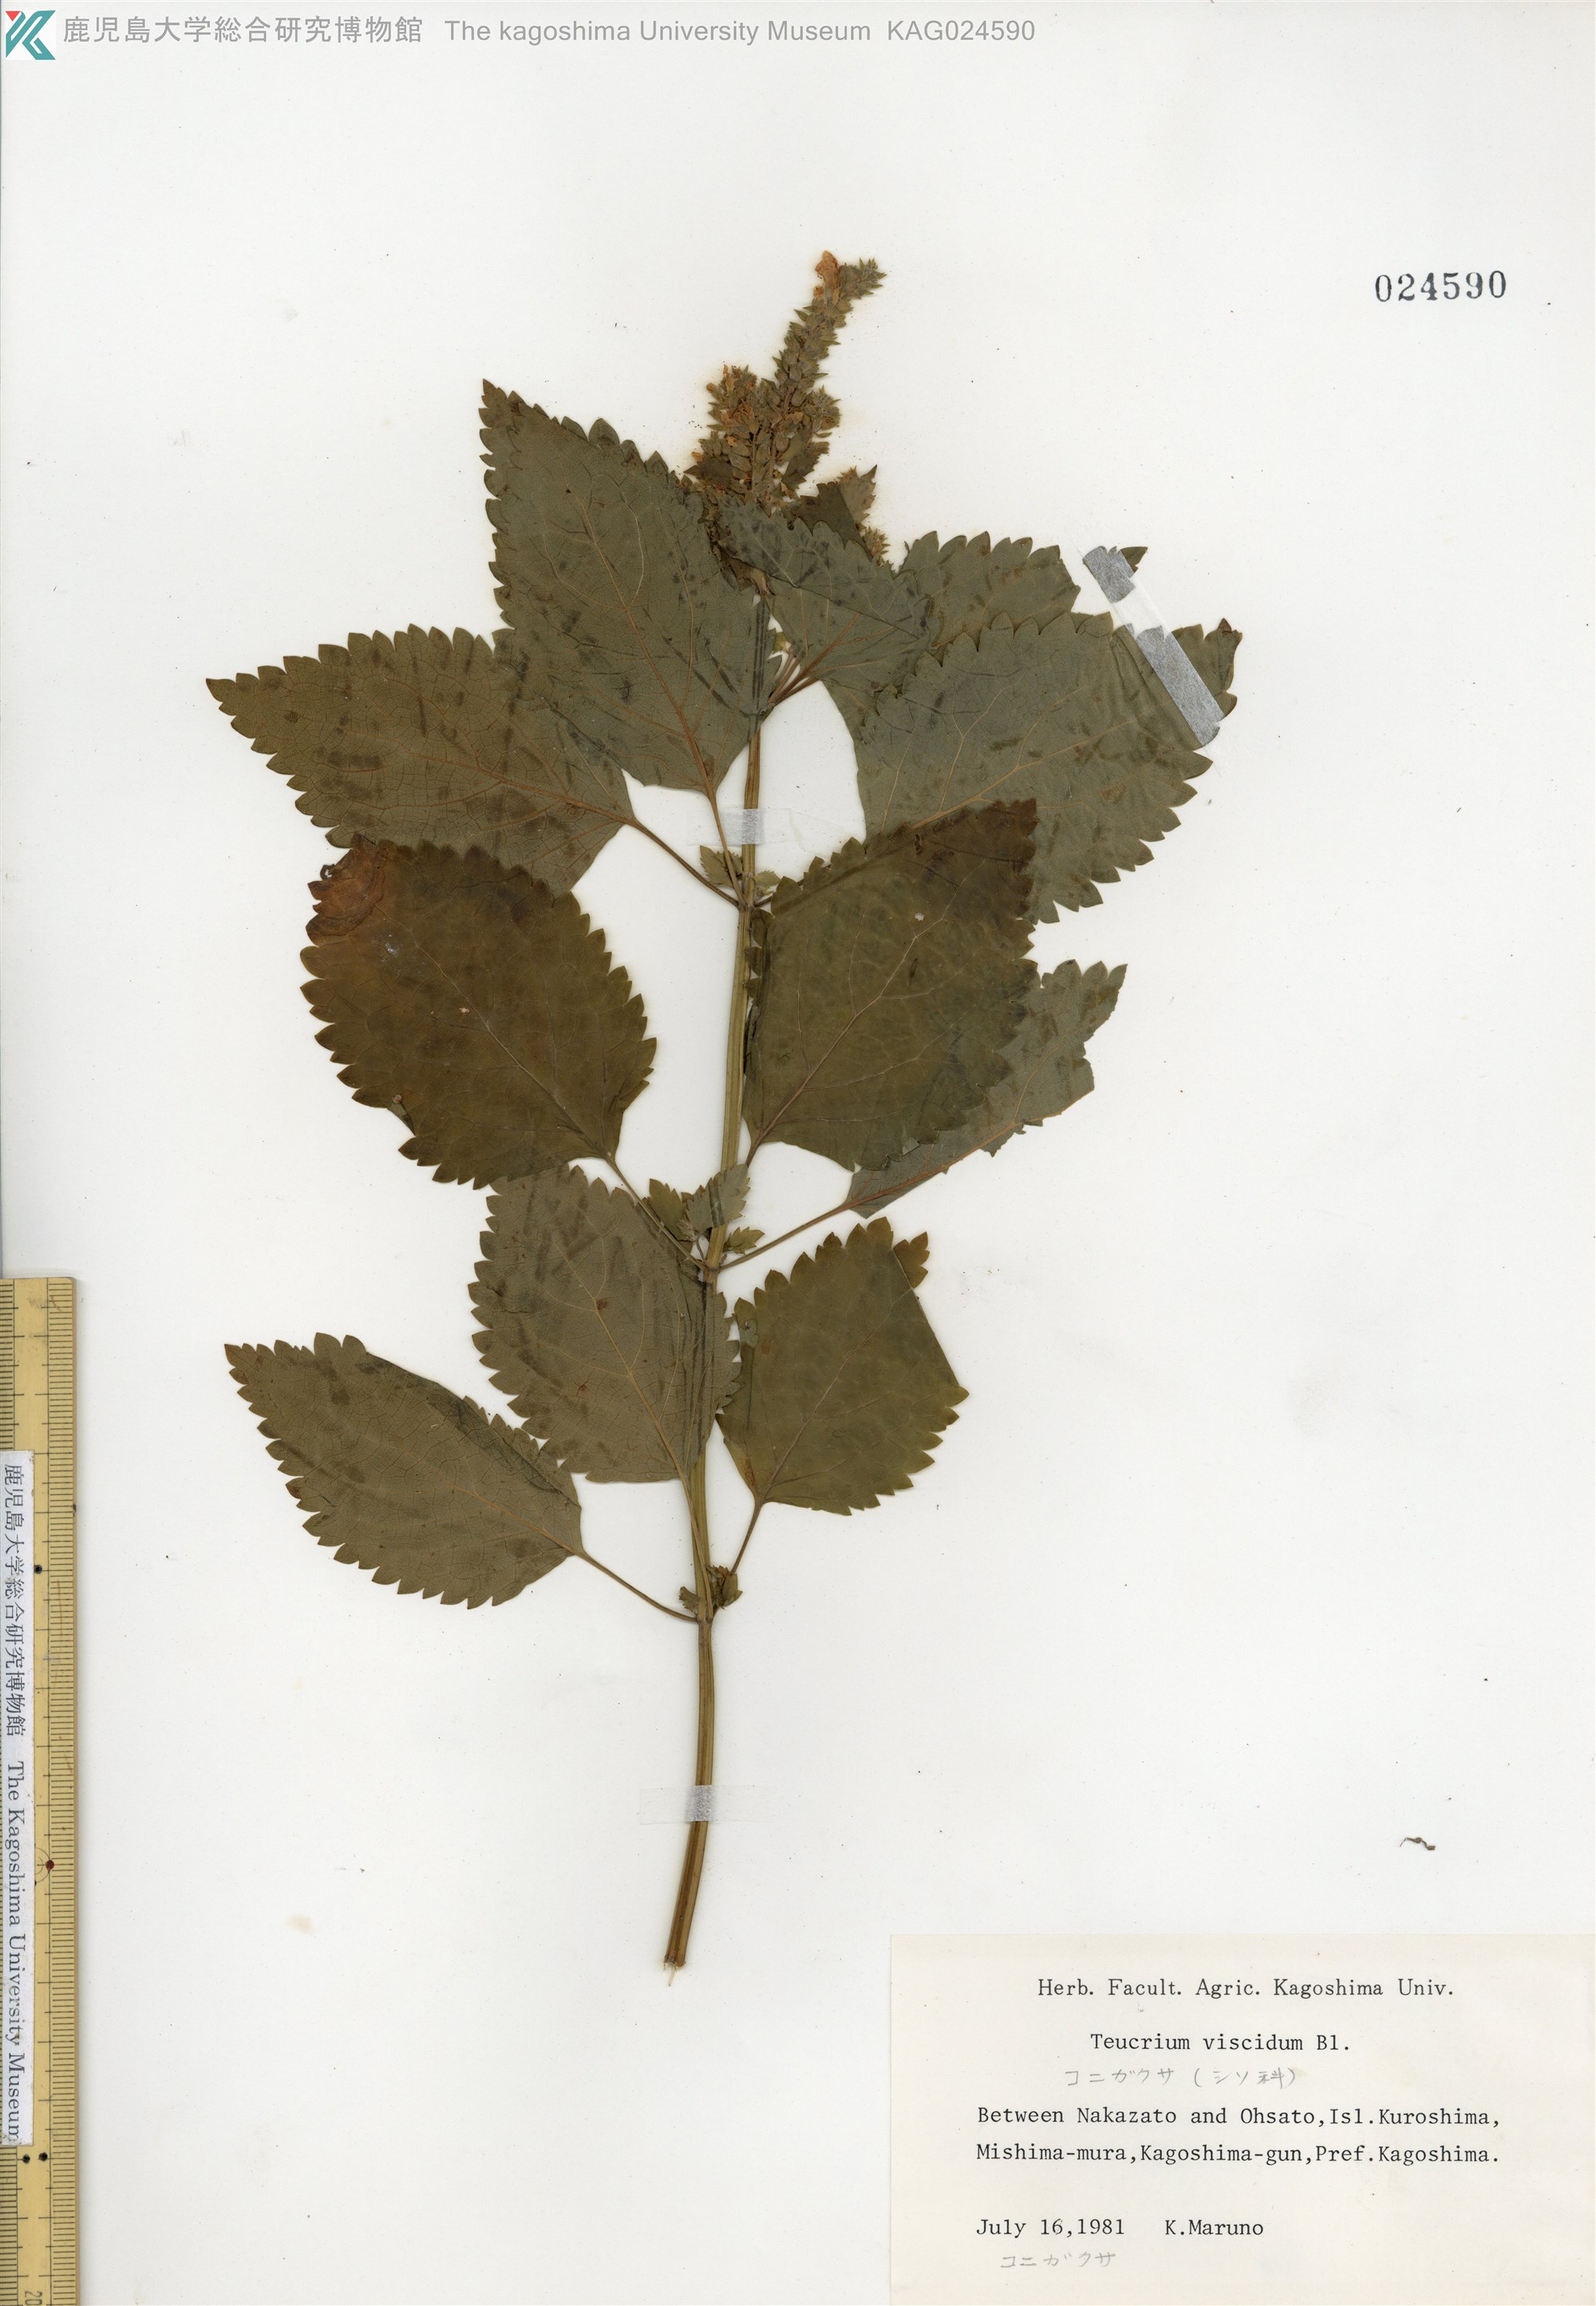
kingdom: Plantae
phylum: Tracheophyta
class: Magnoliopsida
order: Lamiales
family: Lamiaceae
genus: Teucrium
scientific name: Teucrium viscidum
